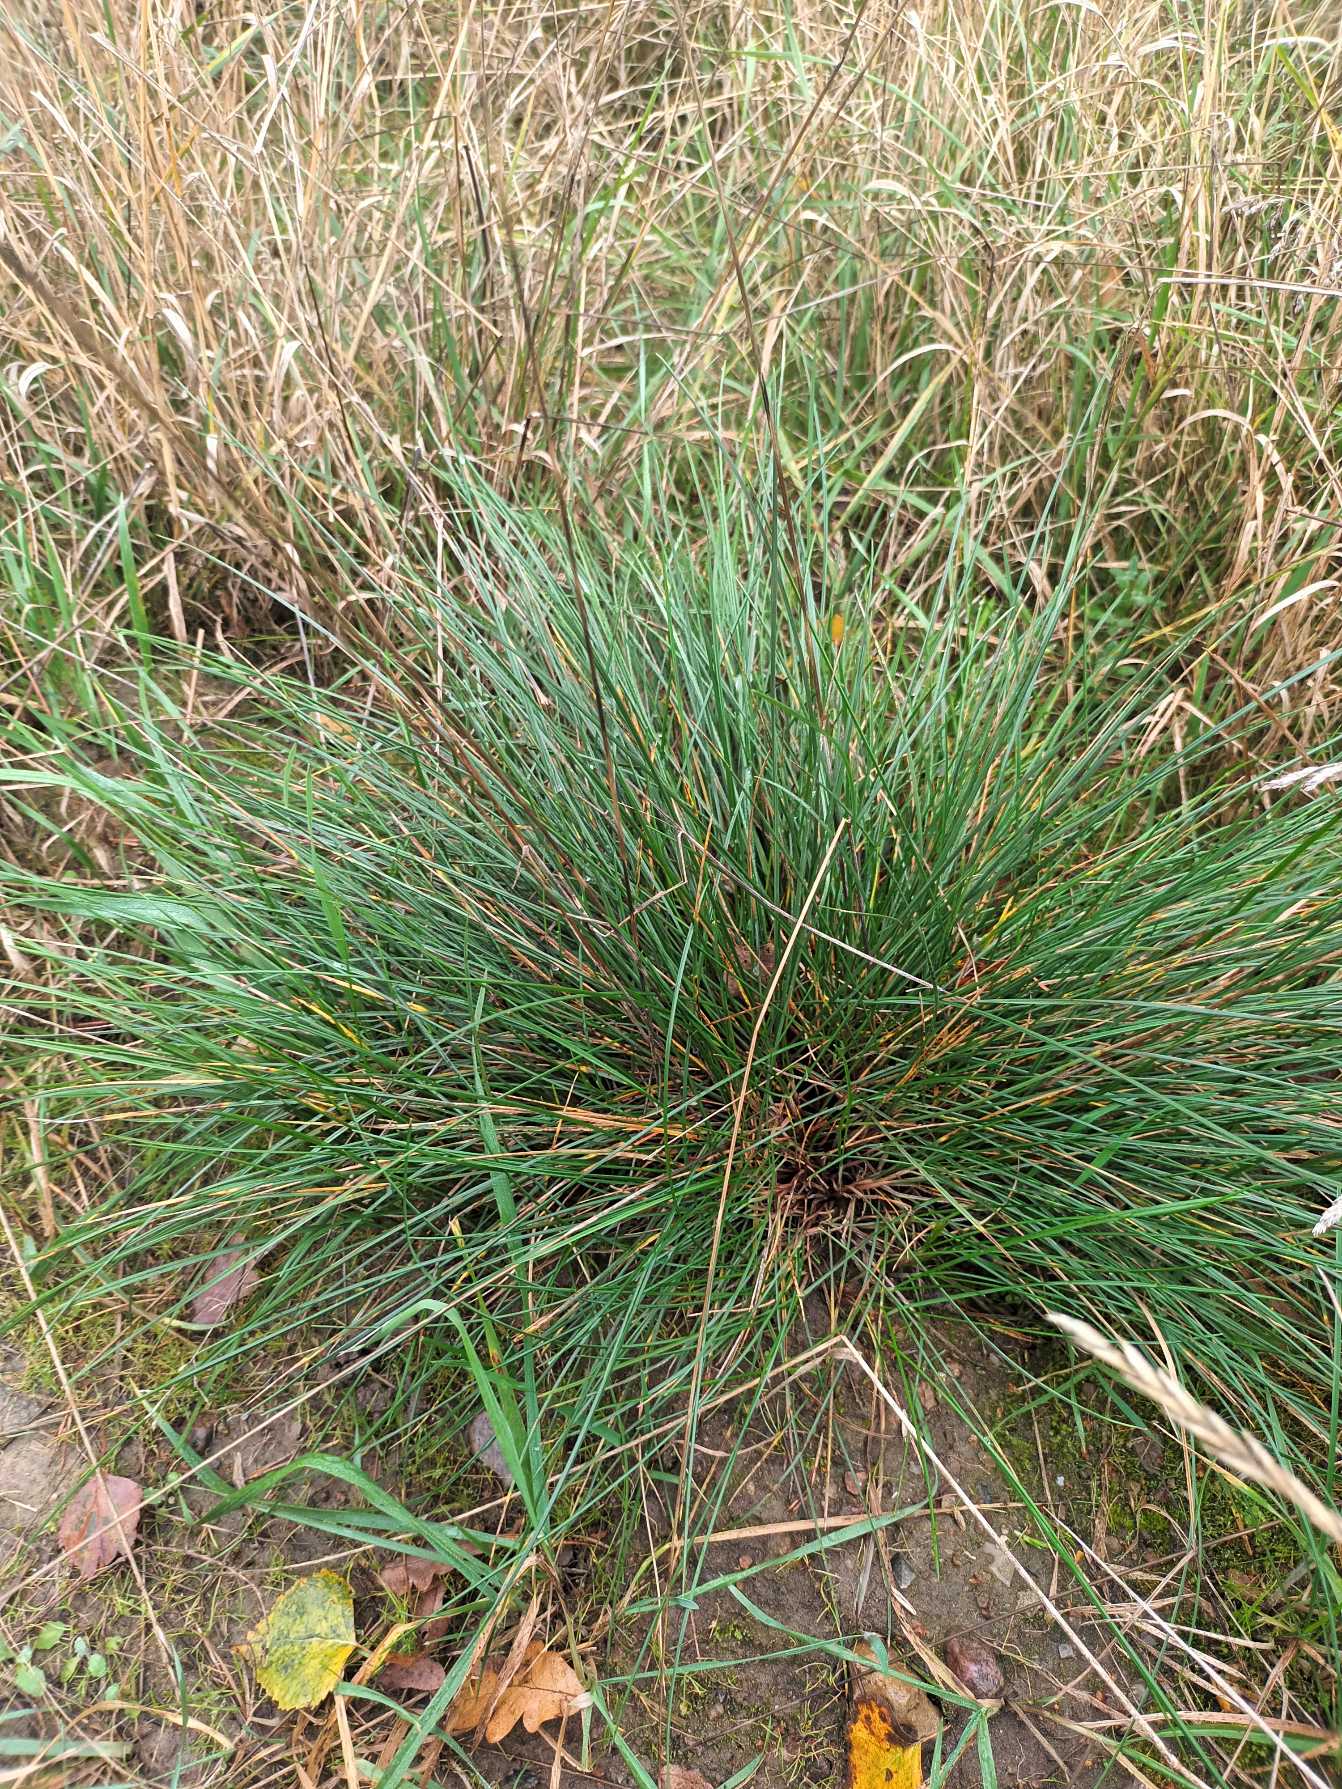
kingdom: Plantae
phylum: Tracheophyta
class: Liliopsida
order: Poales
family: Poaceae
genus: Festuca
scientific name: Festuca nigrescens
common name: Vej-svingel
